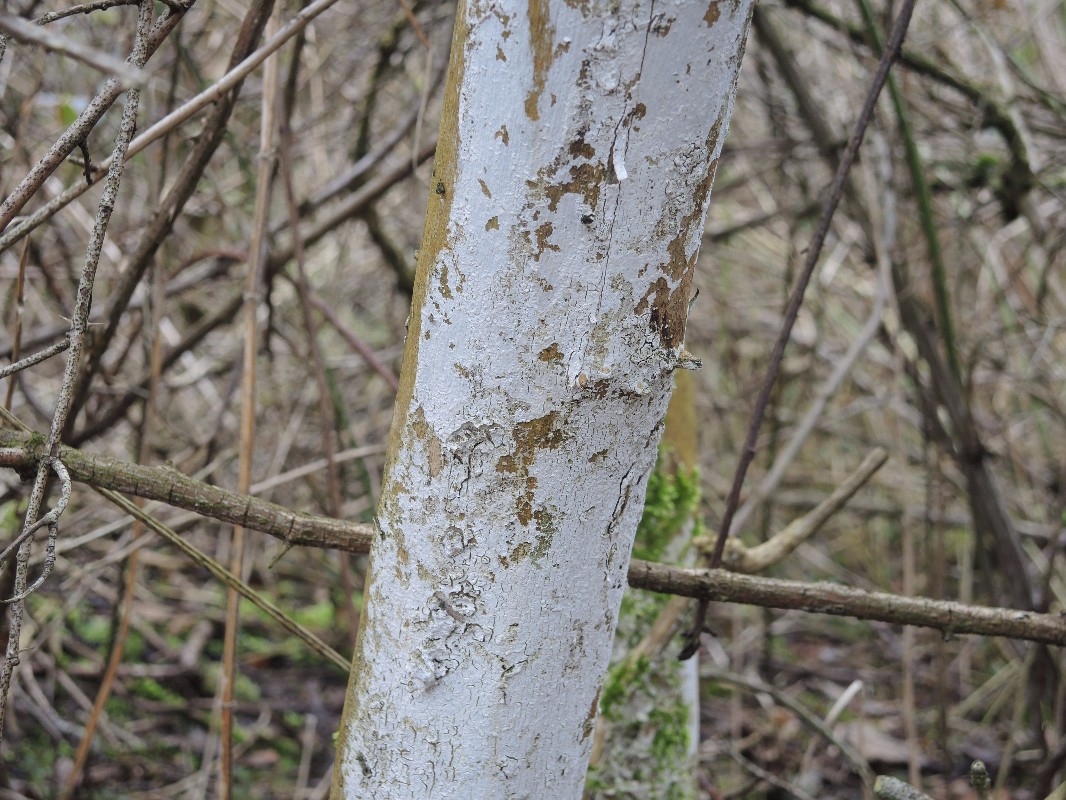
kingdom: Fungi
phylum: Basidiomycota
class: Agaricomycetes
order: Corticiales
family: Corticiaceae
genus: Lyomyces
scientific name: Lyomyces sambuci
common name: almindelig hyldehinde
